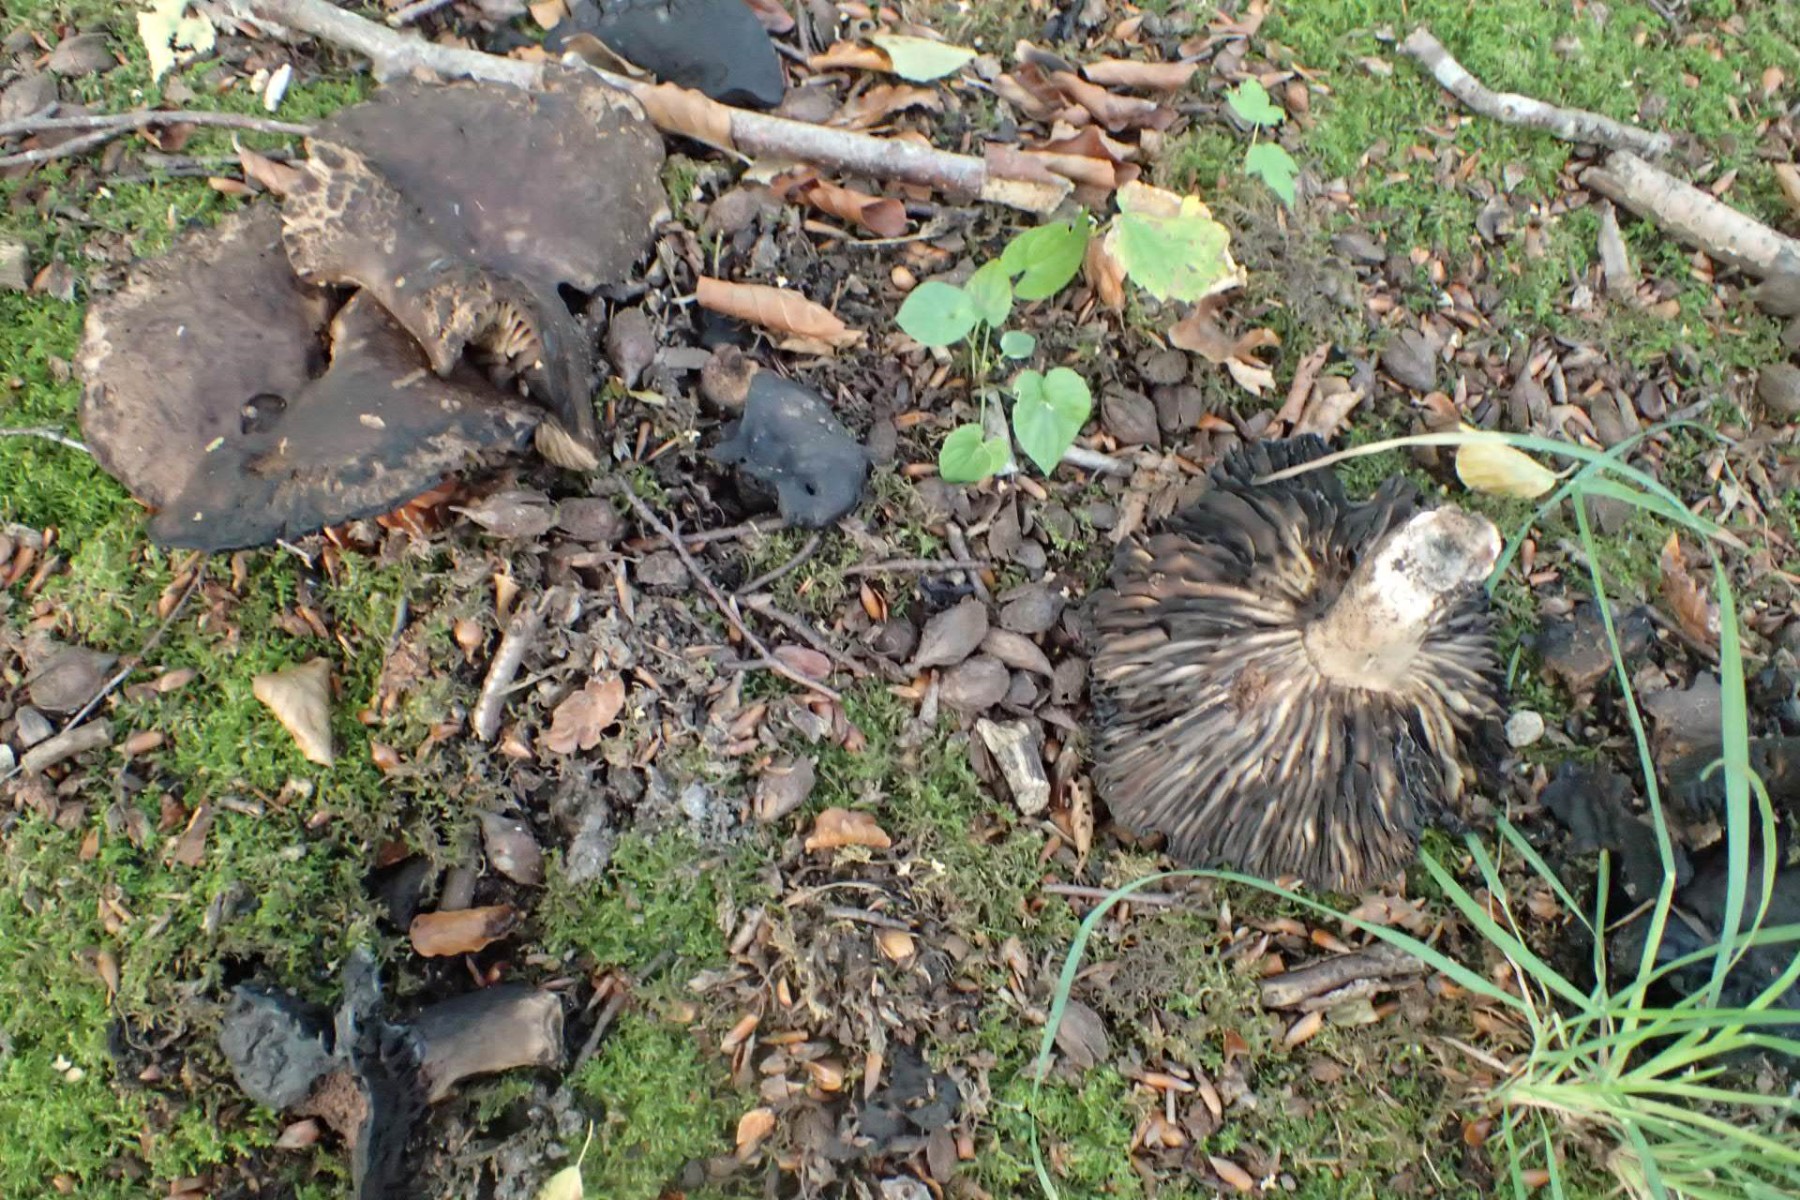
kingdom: Fungi
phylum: Basidiomycota
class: Agaricomycetes
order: Russulales
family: Russulaceae
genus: Russula
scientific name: Russula adusta
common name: sværtende skørhat
